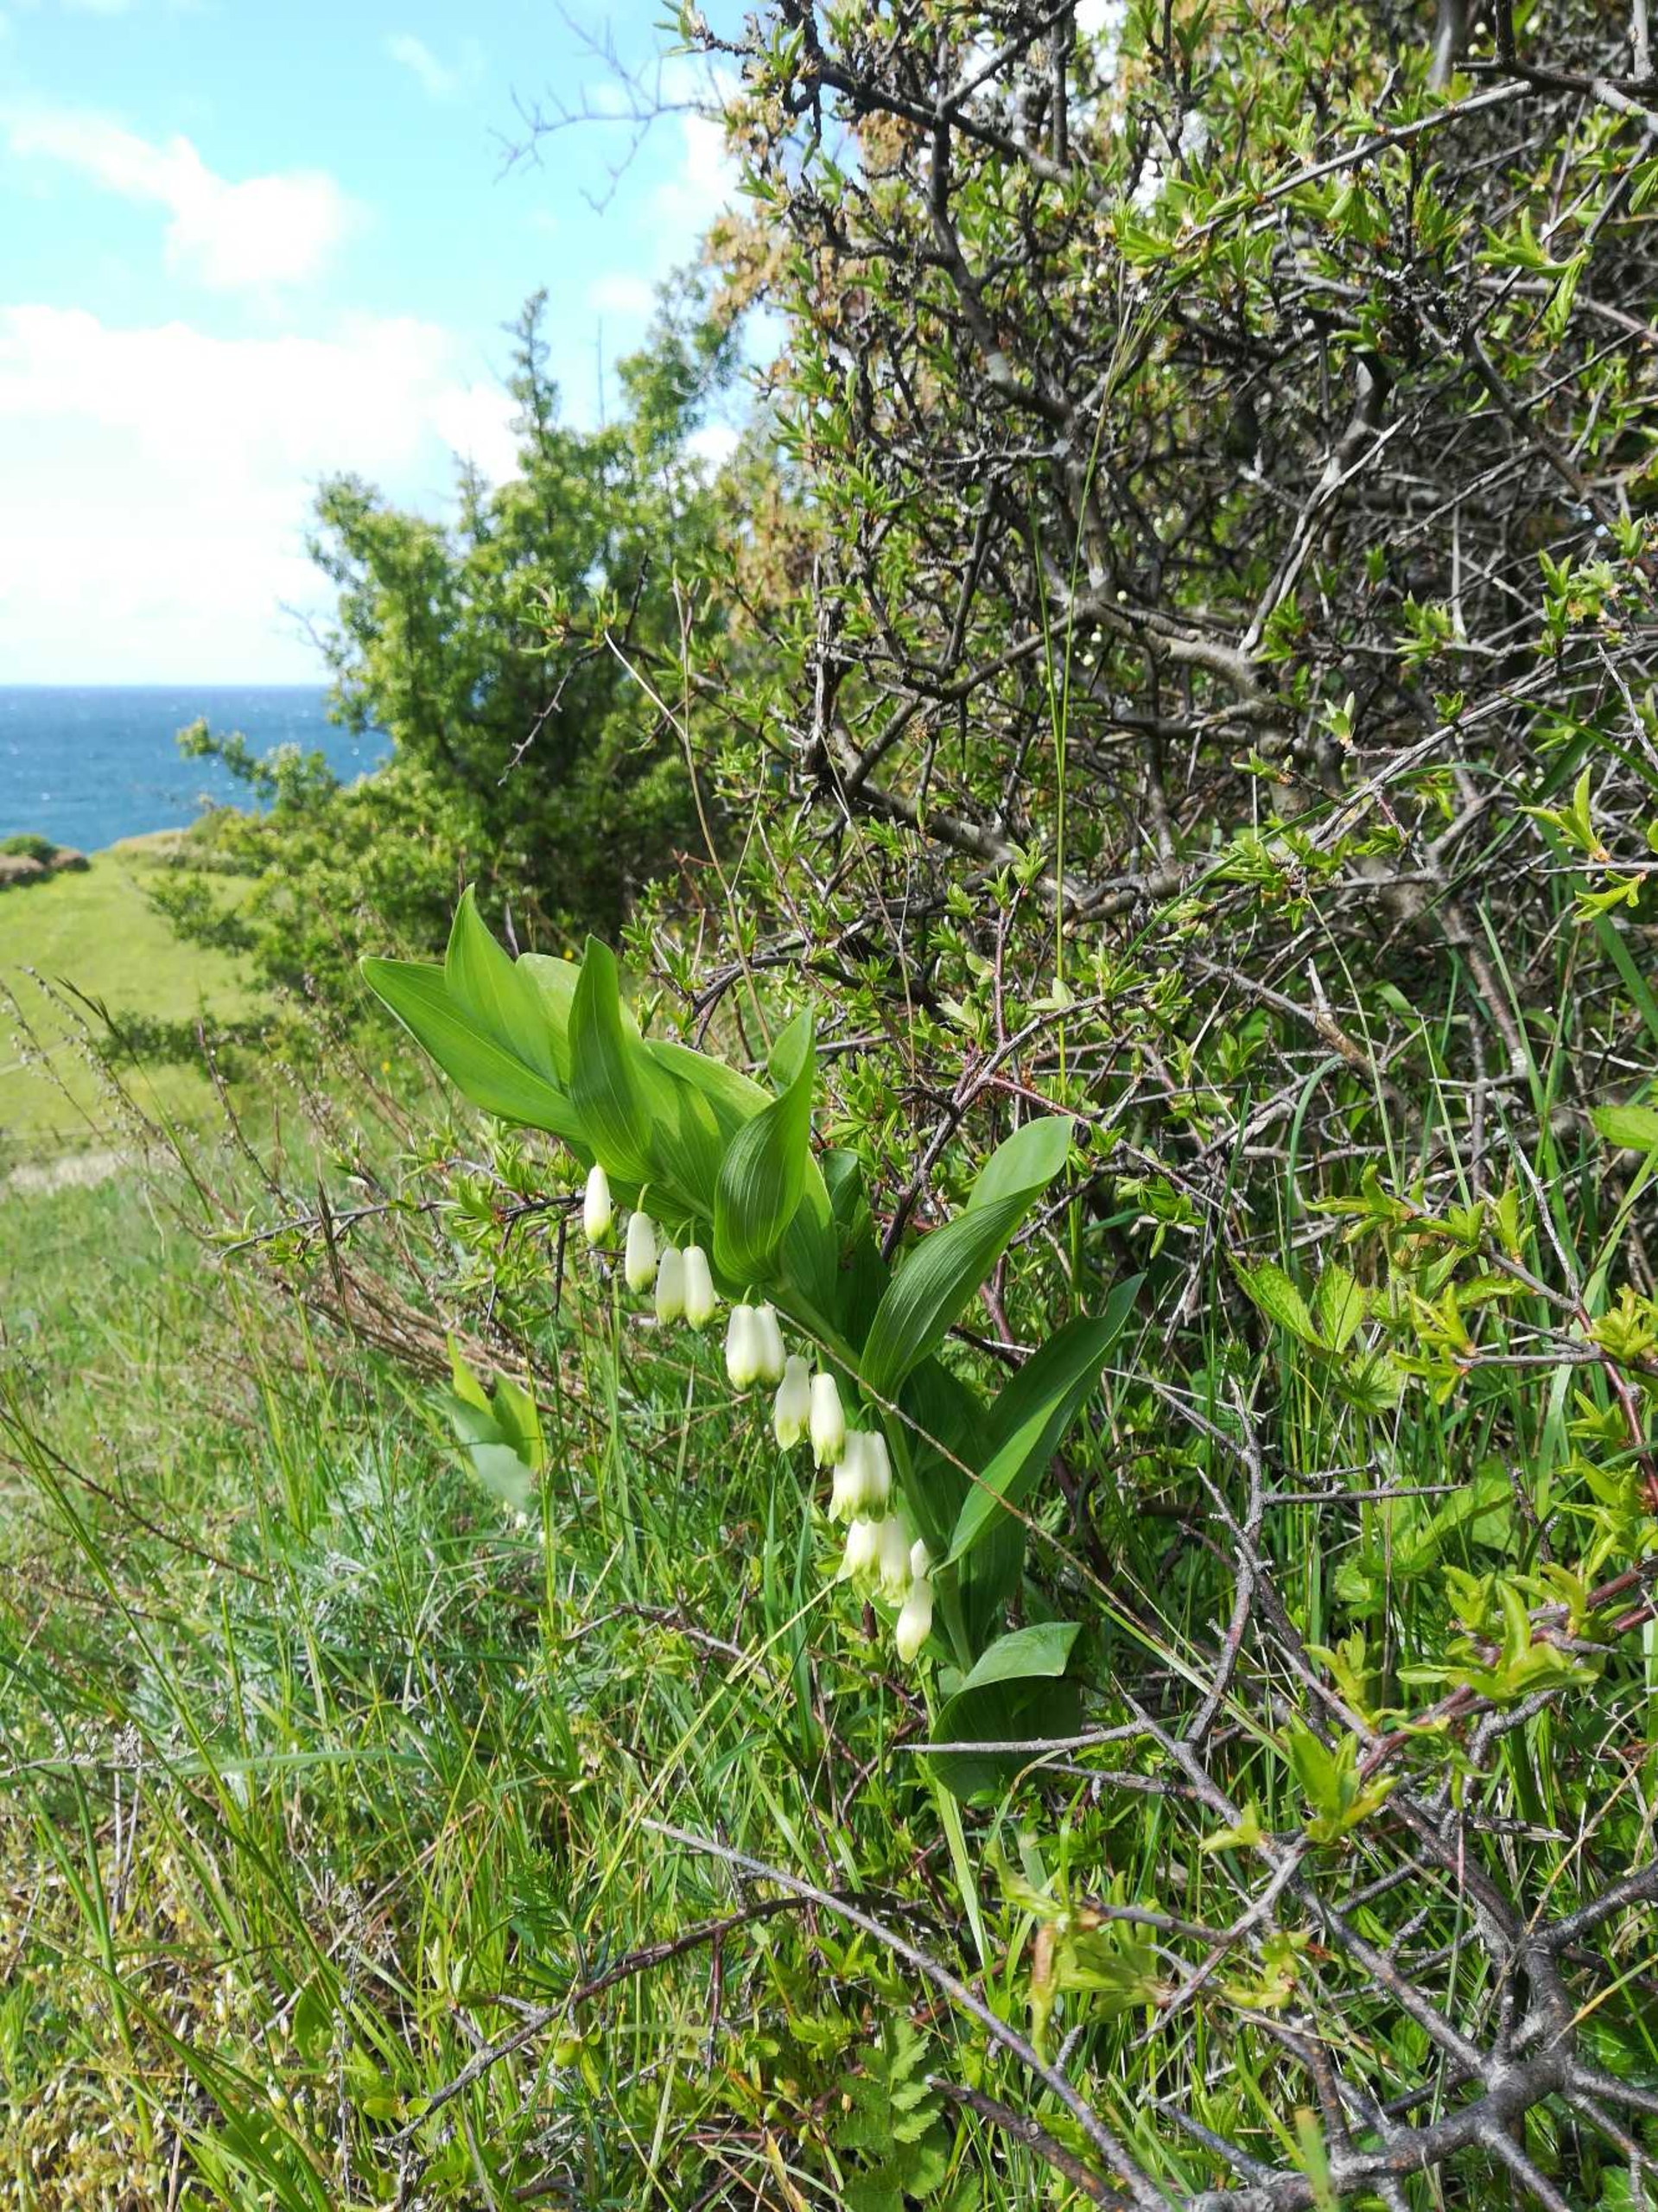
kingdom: Plantae
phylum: Tracheophyta
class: Liliopsida
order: Asparagales
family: Asparagaceae
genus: Polygonatum
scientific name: Polygonatum odoratum
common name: Kantet konval
